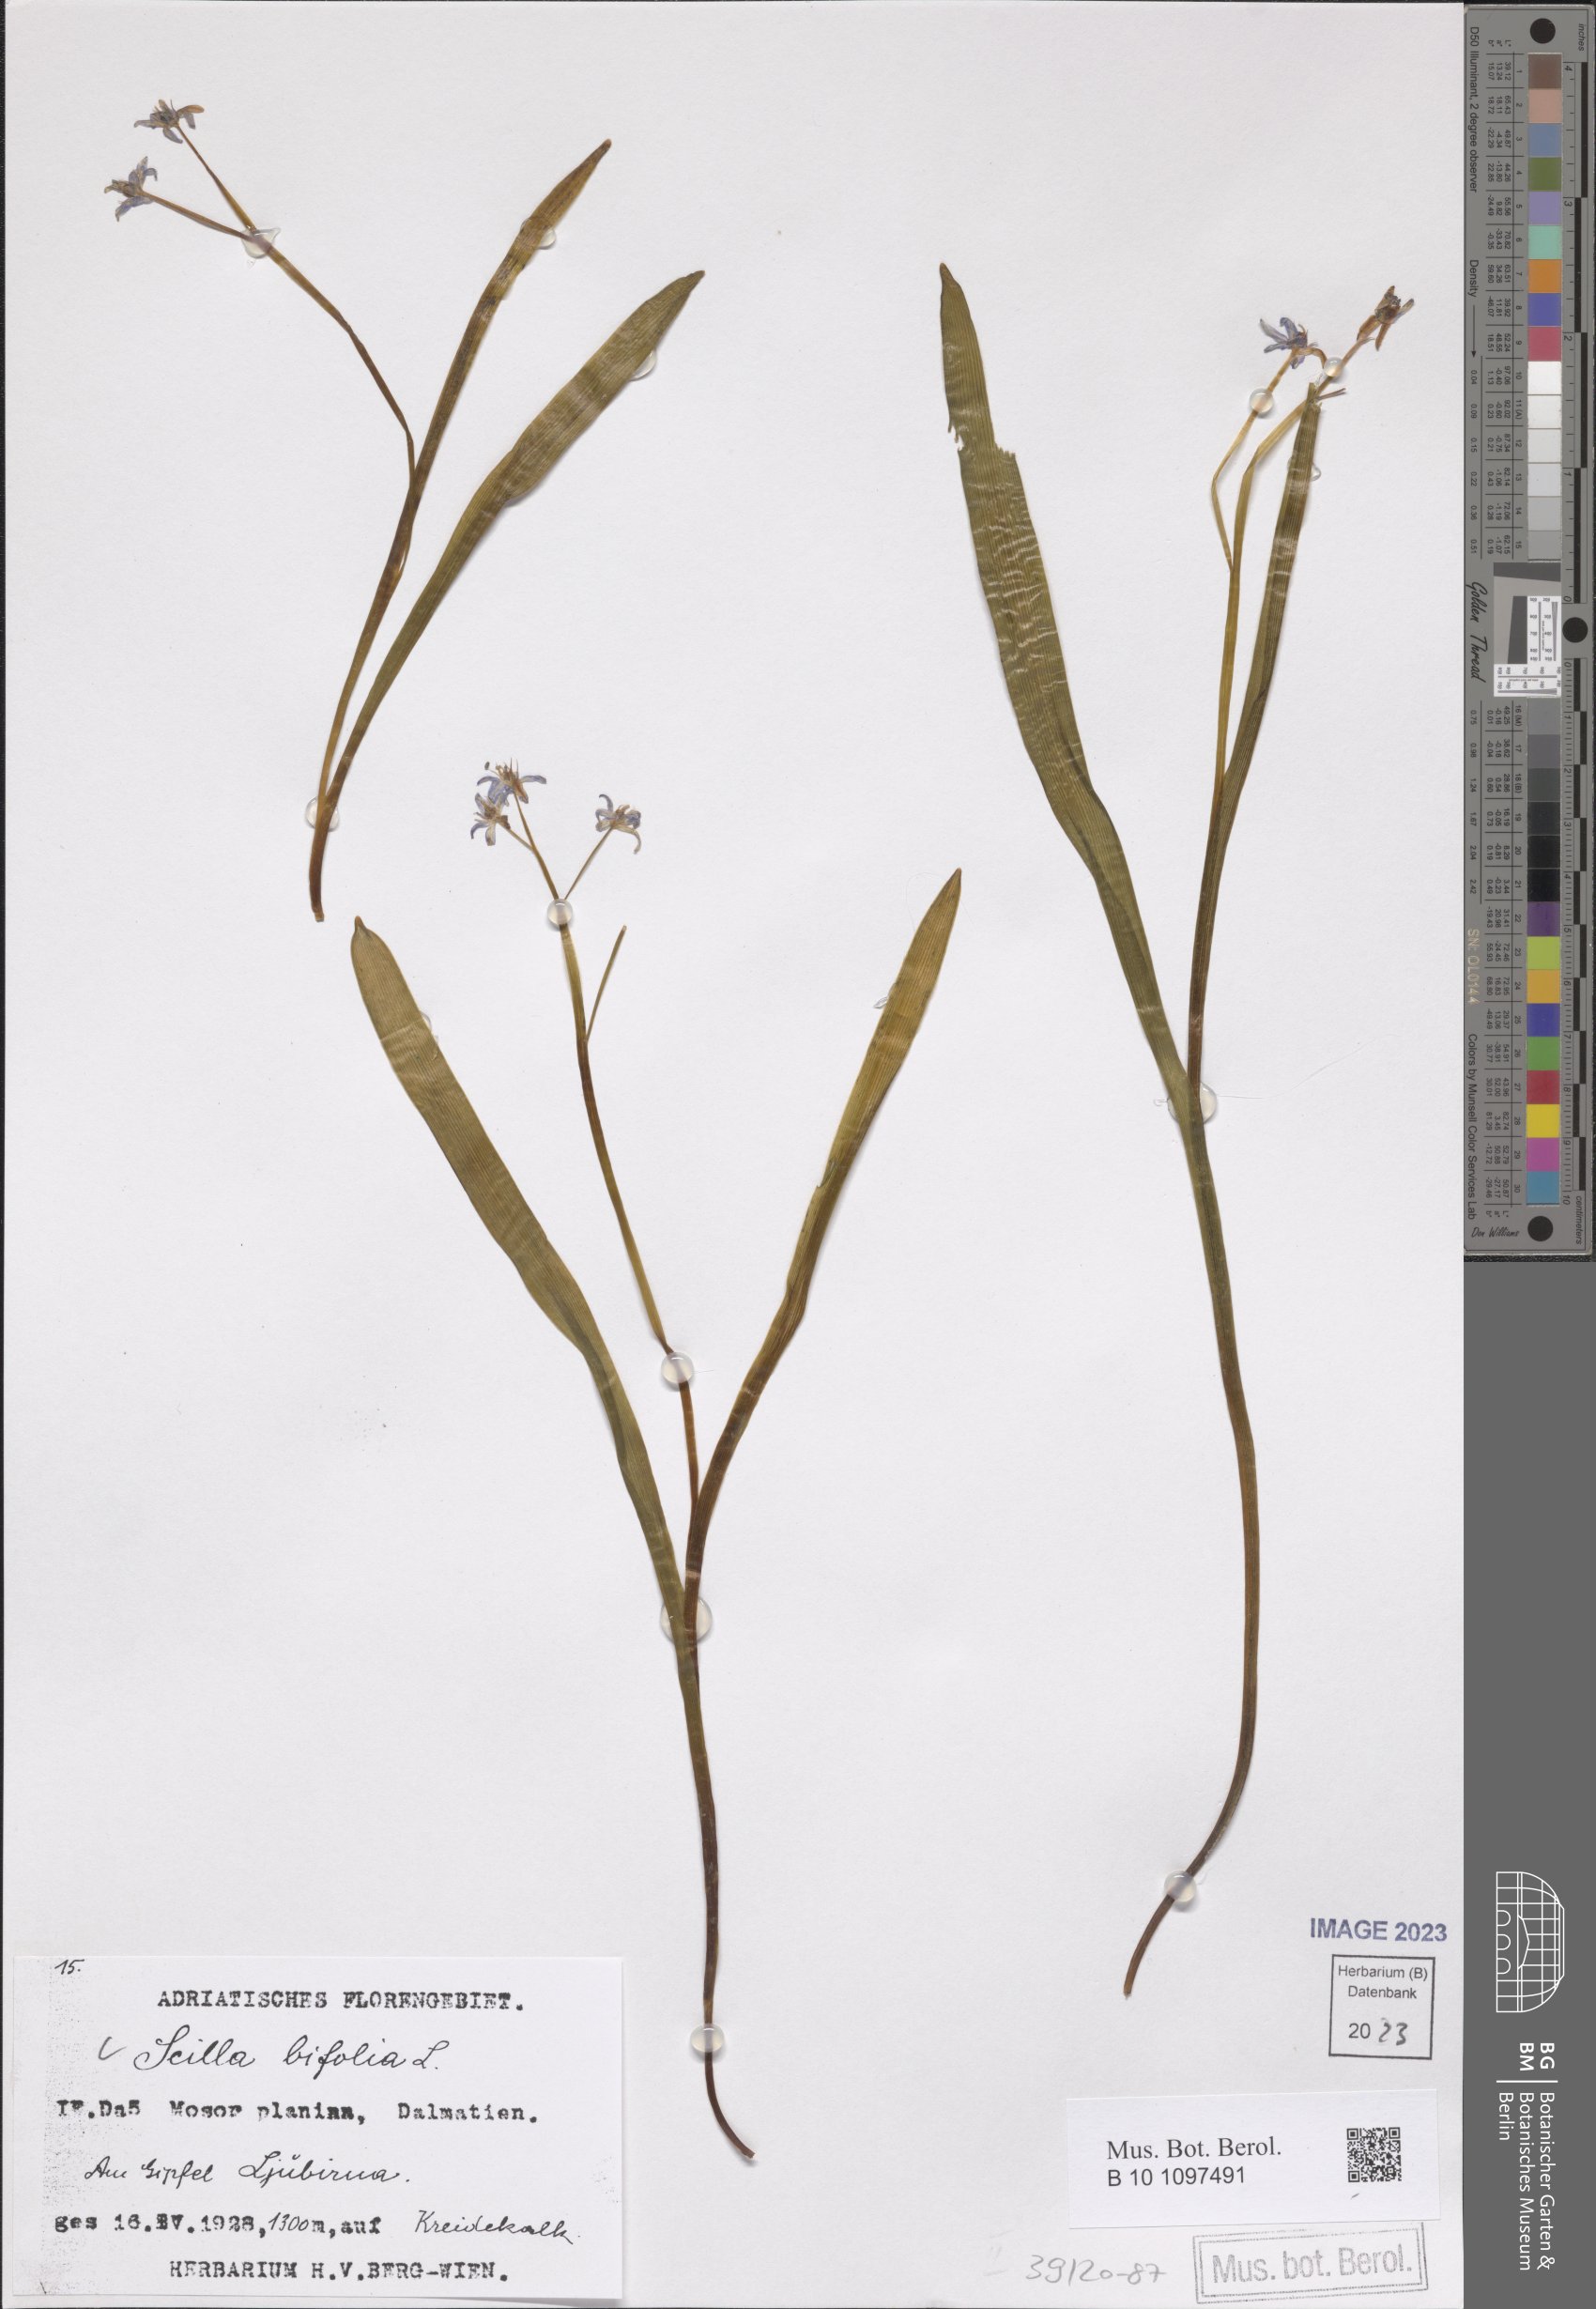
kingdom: Plantae
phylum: Tracheophyta
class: Liliopsida
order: Asparagales
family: Asparagaceae
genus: Scilla
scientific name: Scilla bifolia
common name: Alpine squill
